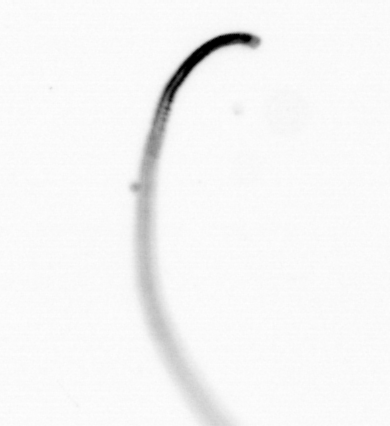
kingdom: Chromista
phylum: Ochrophyta
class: Bacillariophyceae
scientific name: Bacillariophyceae
